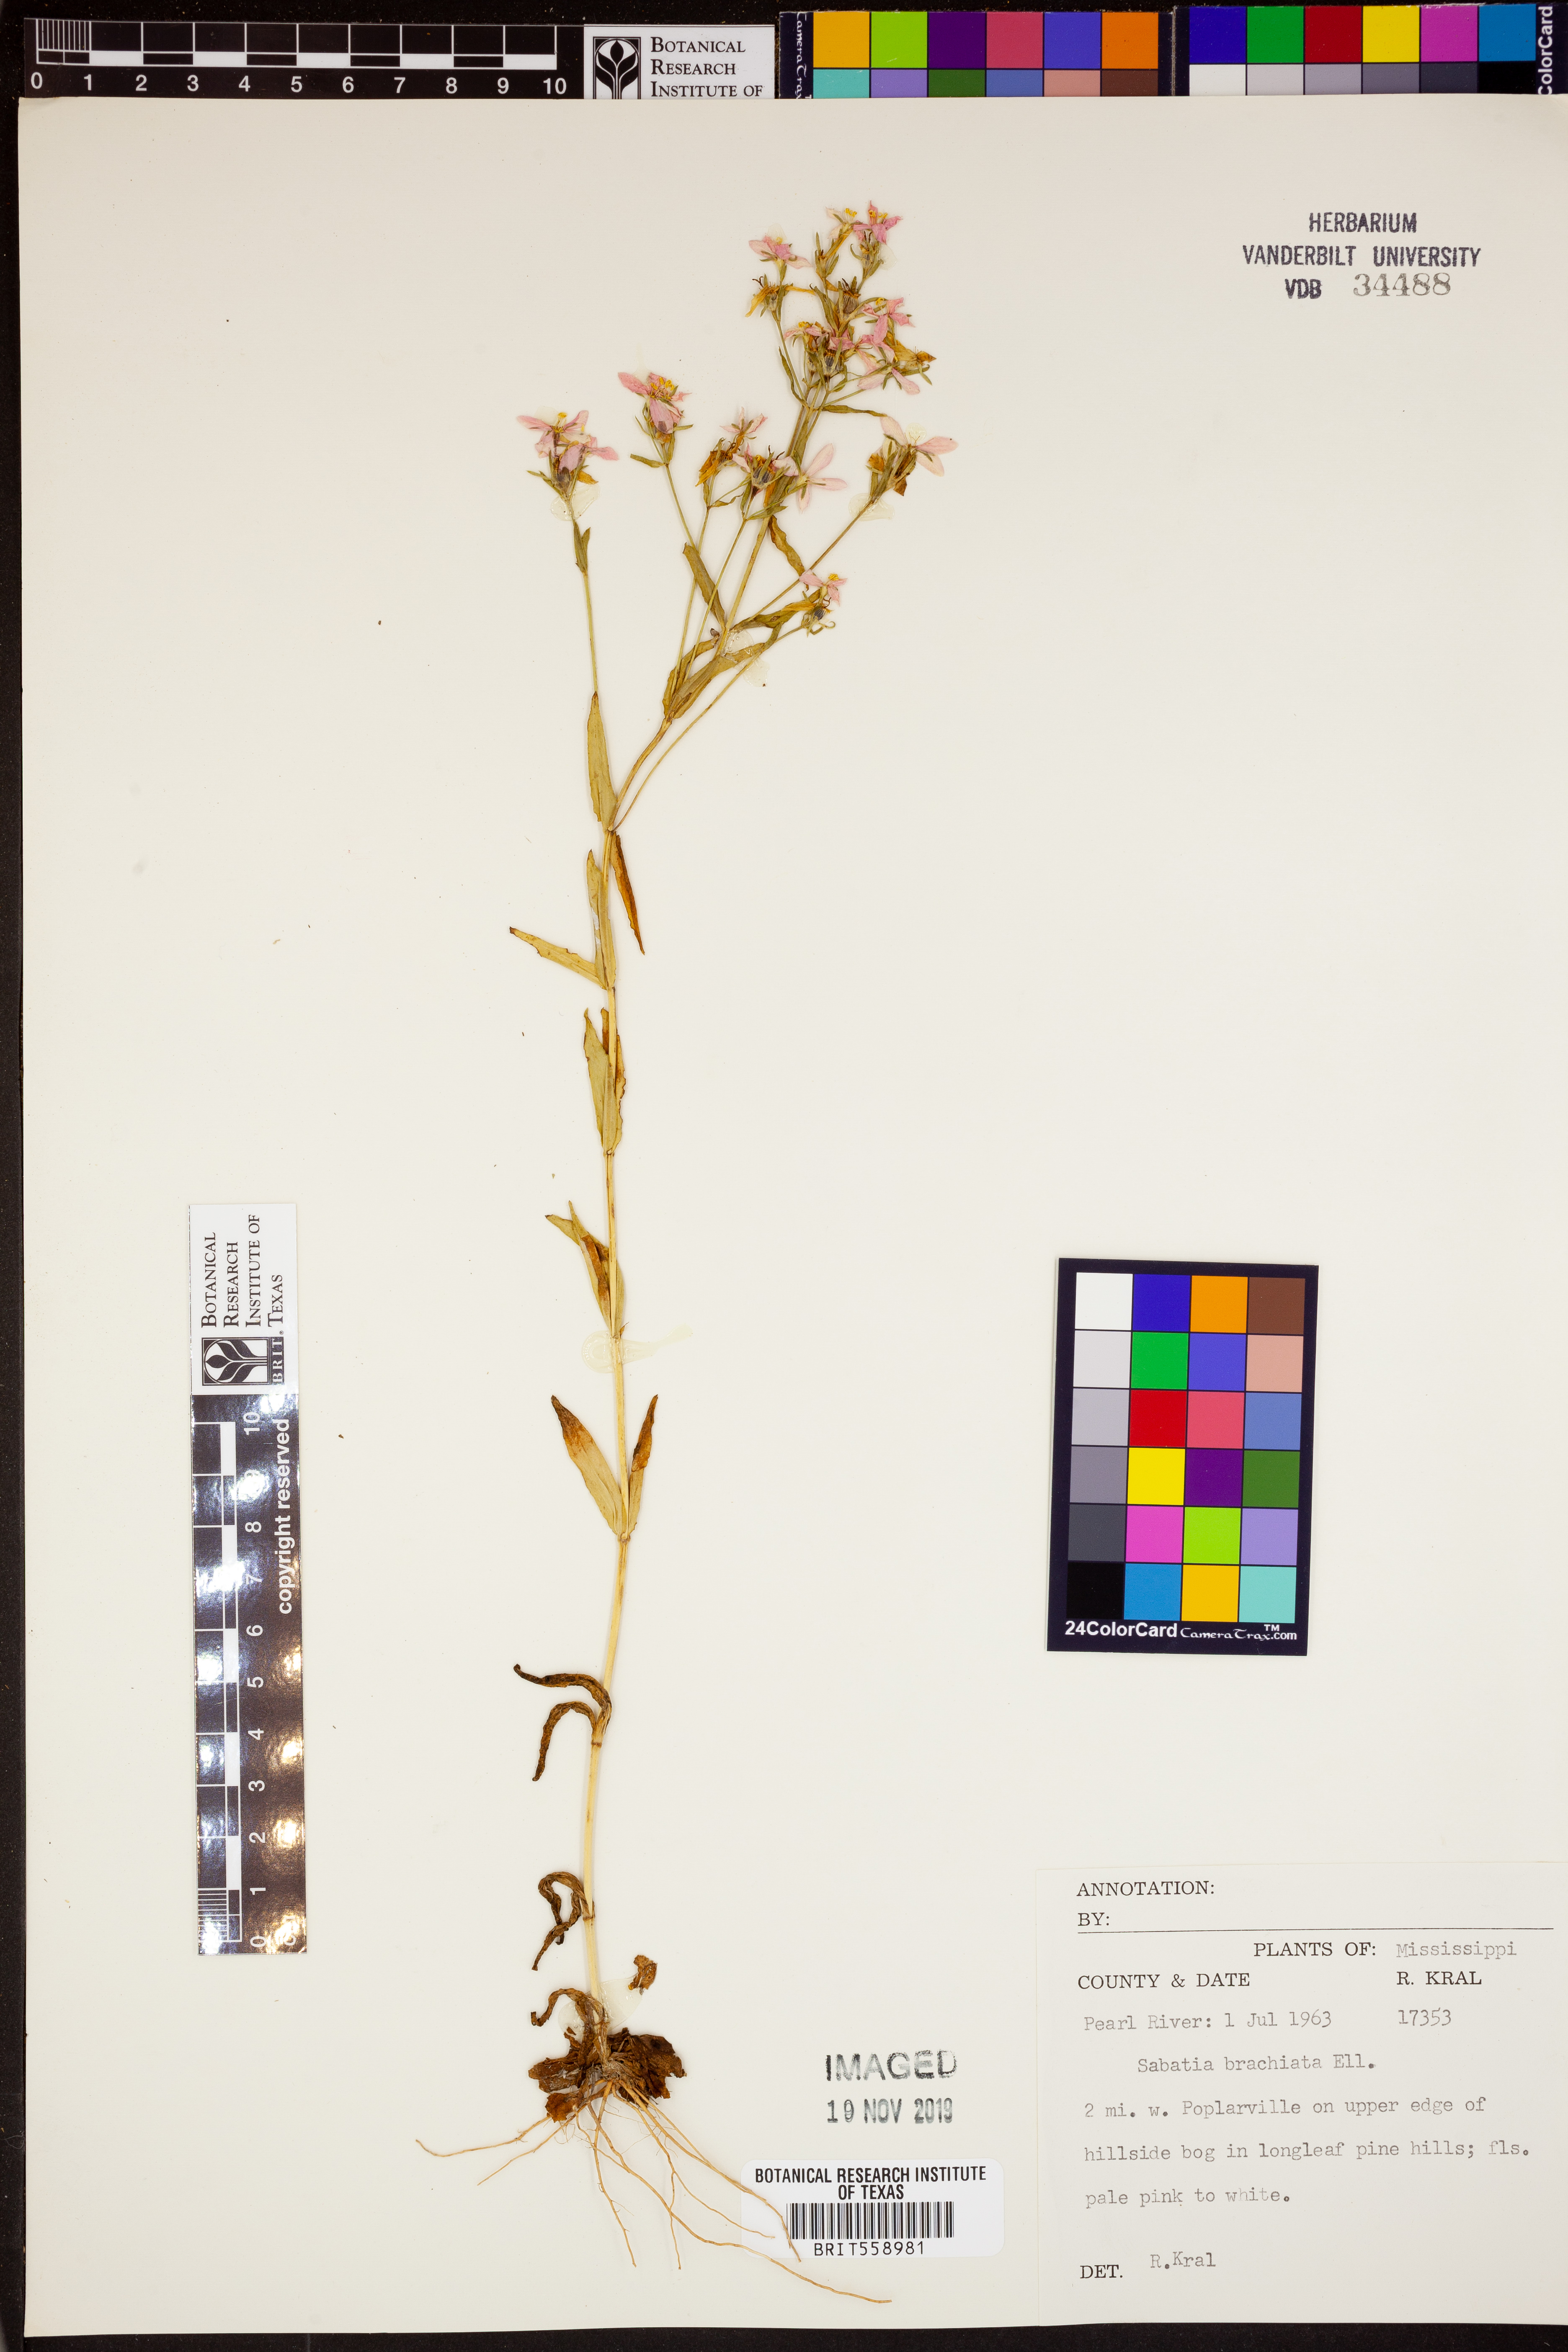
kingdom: Plantae
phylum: Tracheophyta
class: Magnoliopsida
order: Gentianales
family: Gentianaceae
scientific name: Gentianaceae
